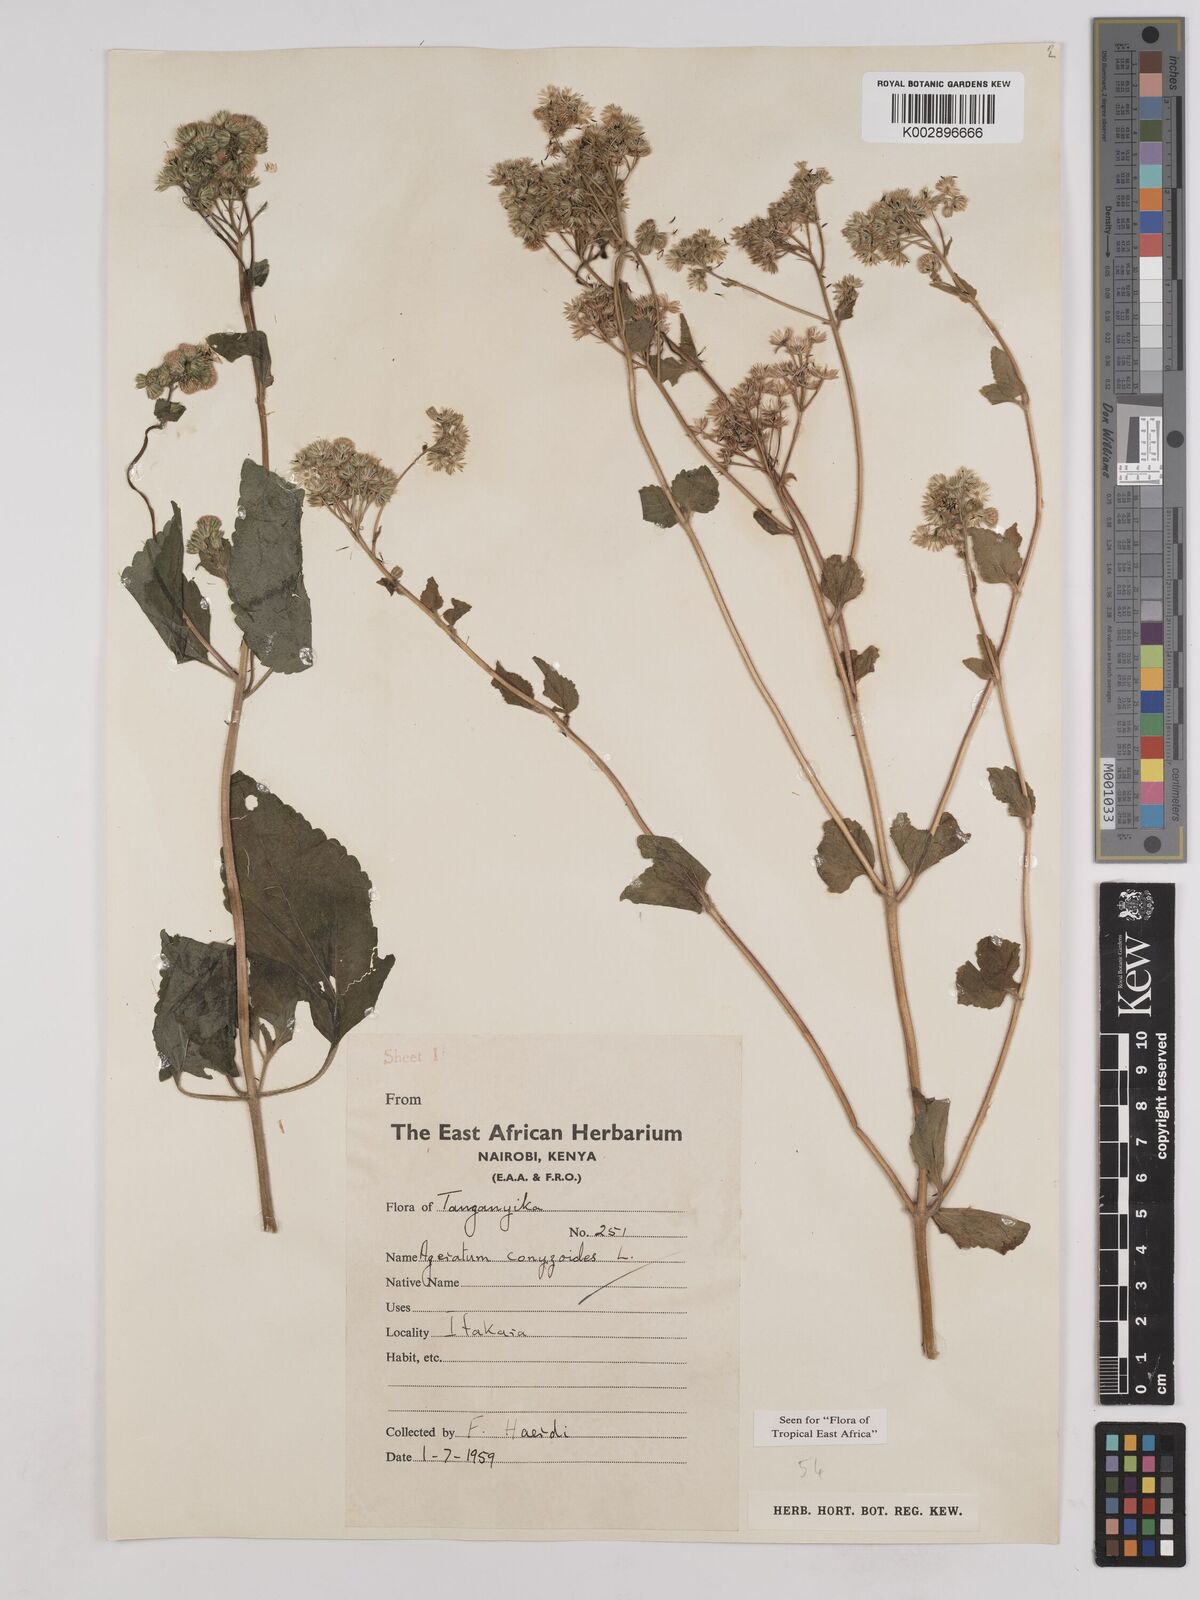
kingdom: Plantae
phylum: Tracheophyta
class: Magnoliopsida
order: Asterales
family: Asteraceae
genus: Ageratum
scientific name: Ageratum conyzoides
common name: Tropical whiteweed
